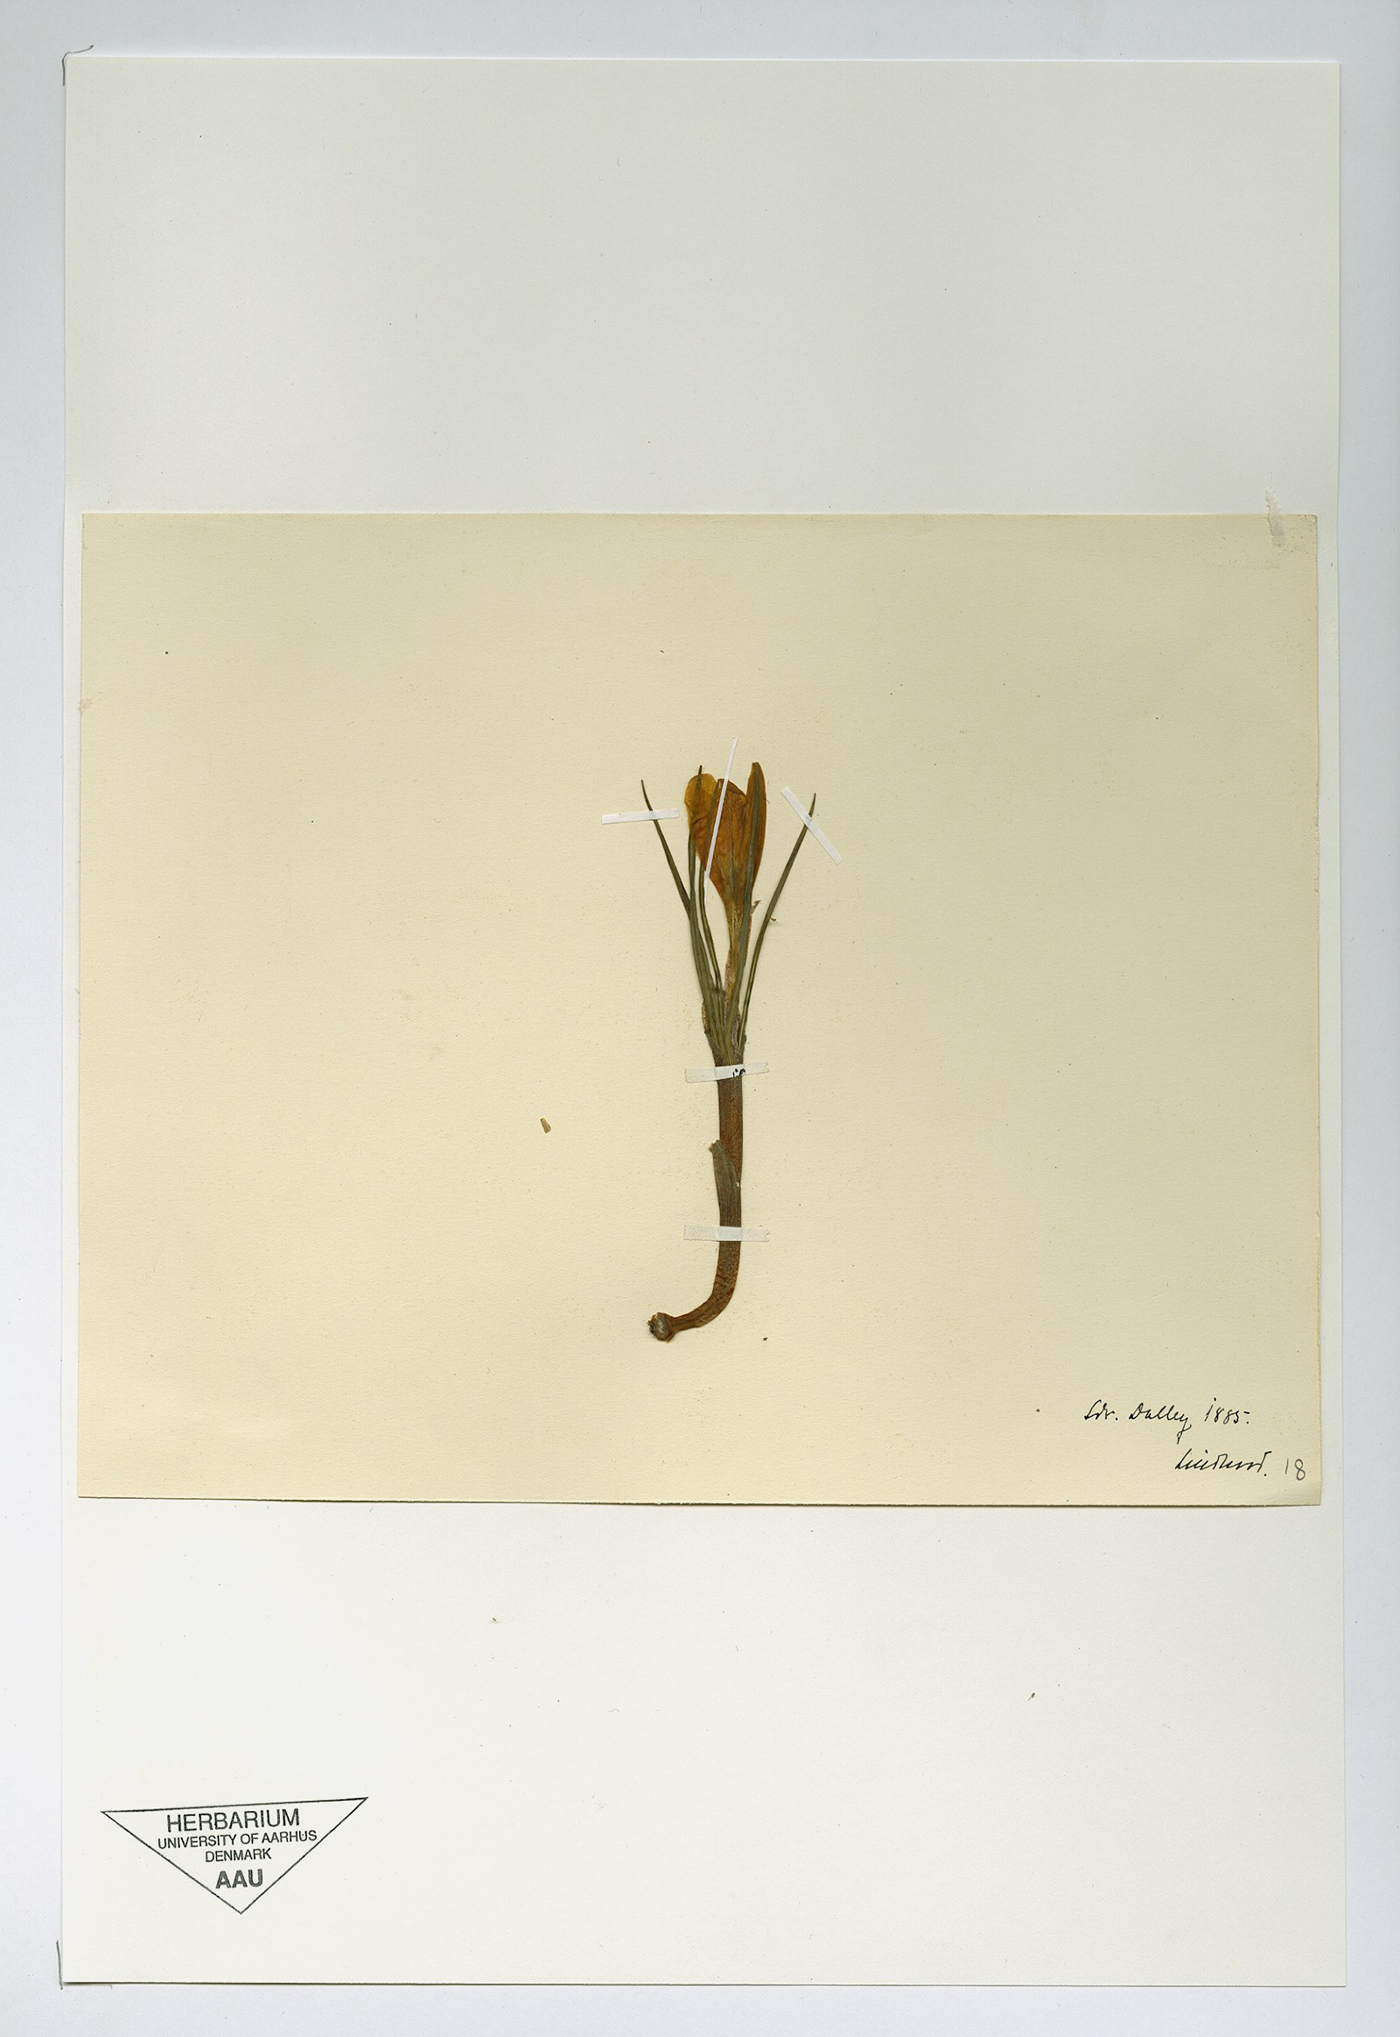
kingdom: Plantae
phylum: Tracheophyta
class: Liliopsida
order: Asparagales
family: Iridaceae
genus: Crocus
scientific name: Crocus luteus
